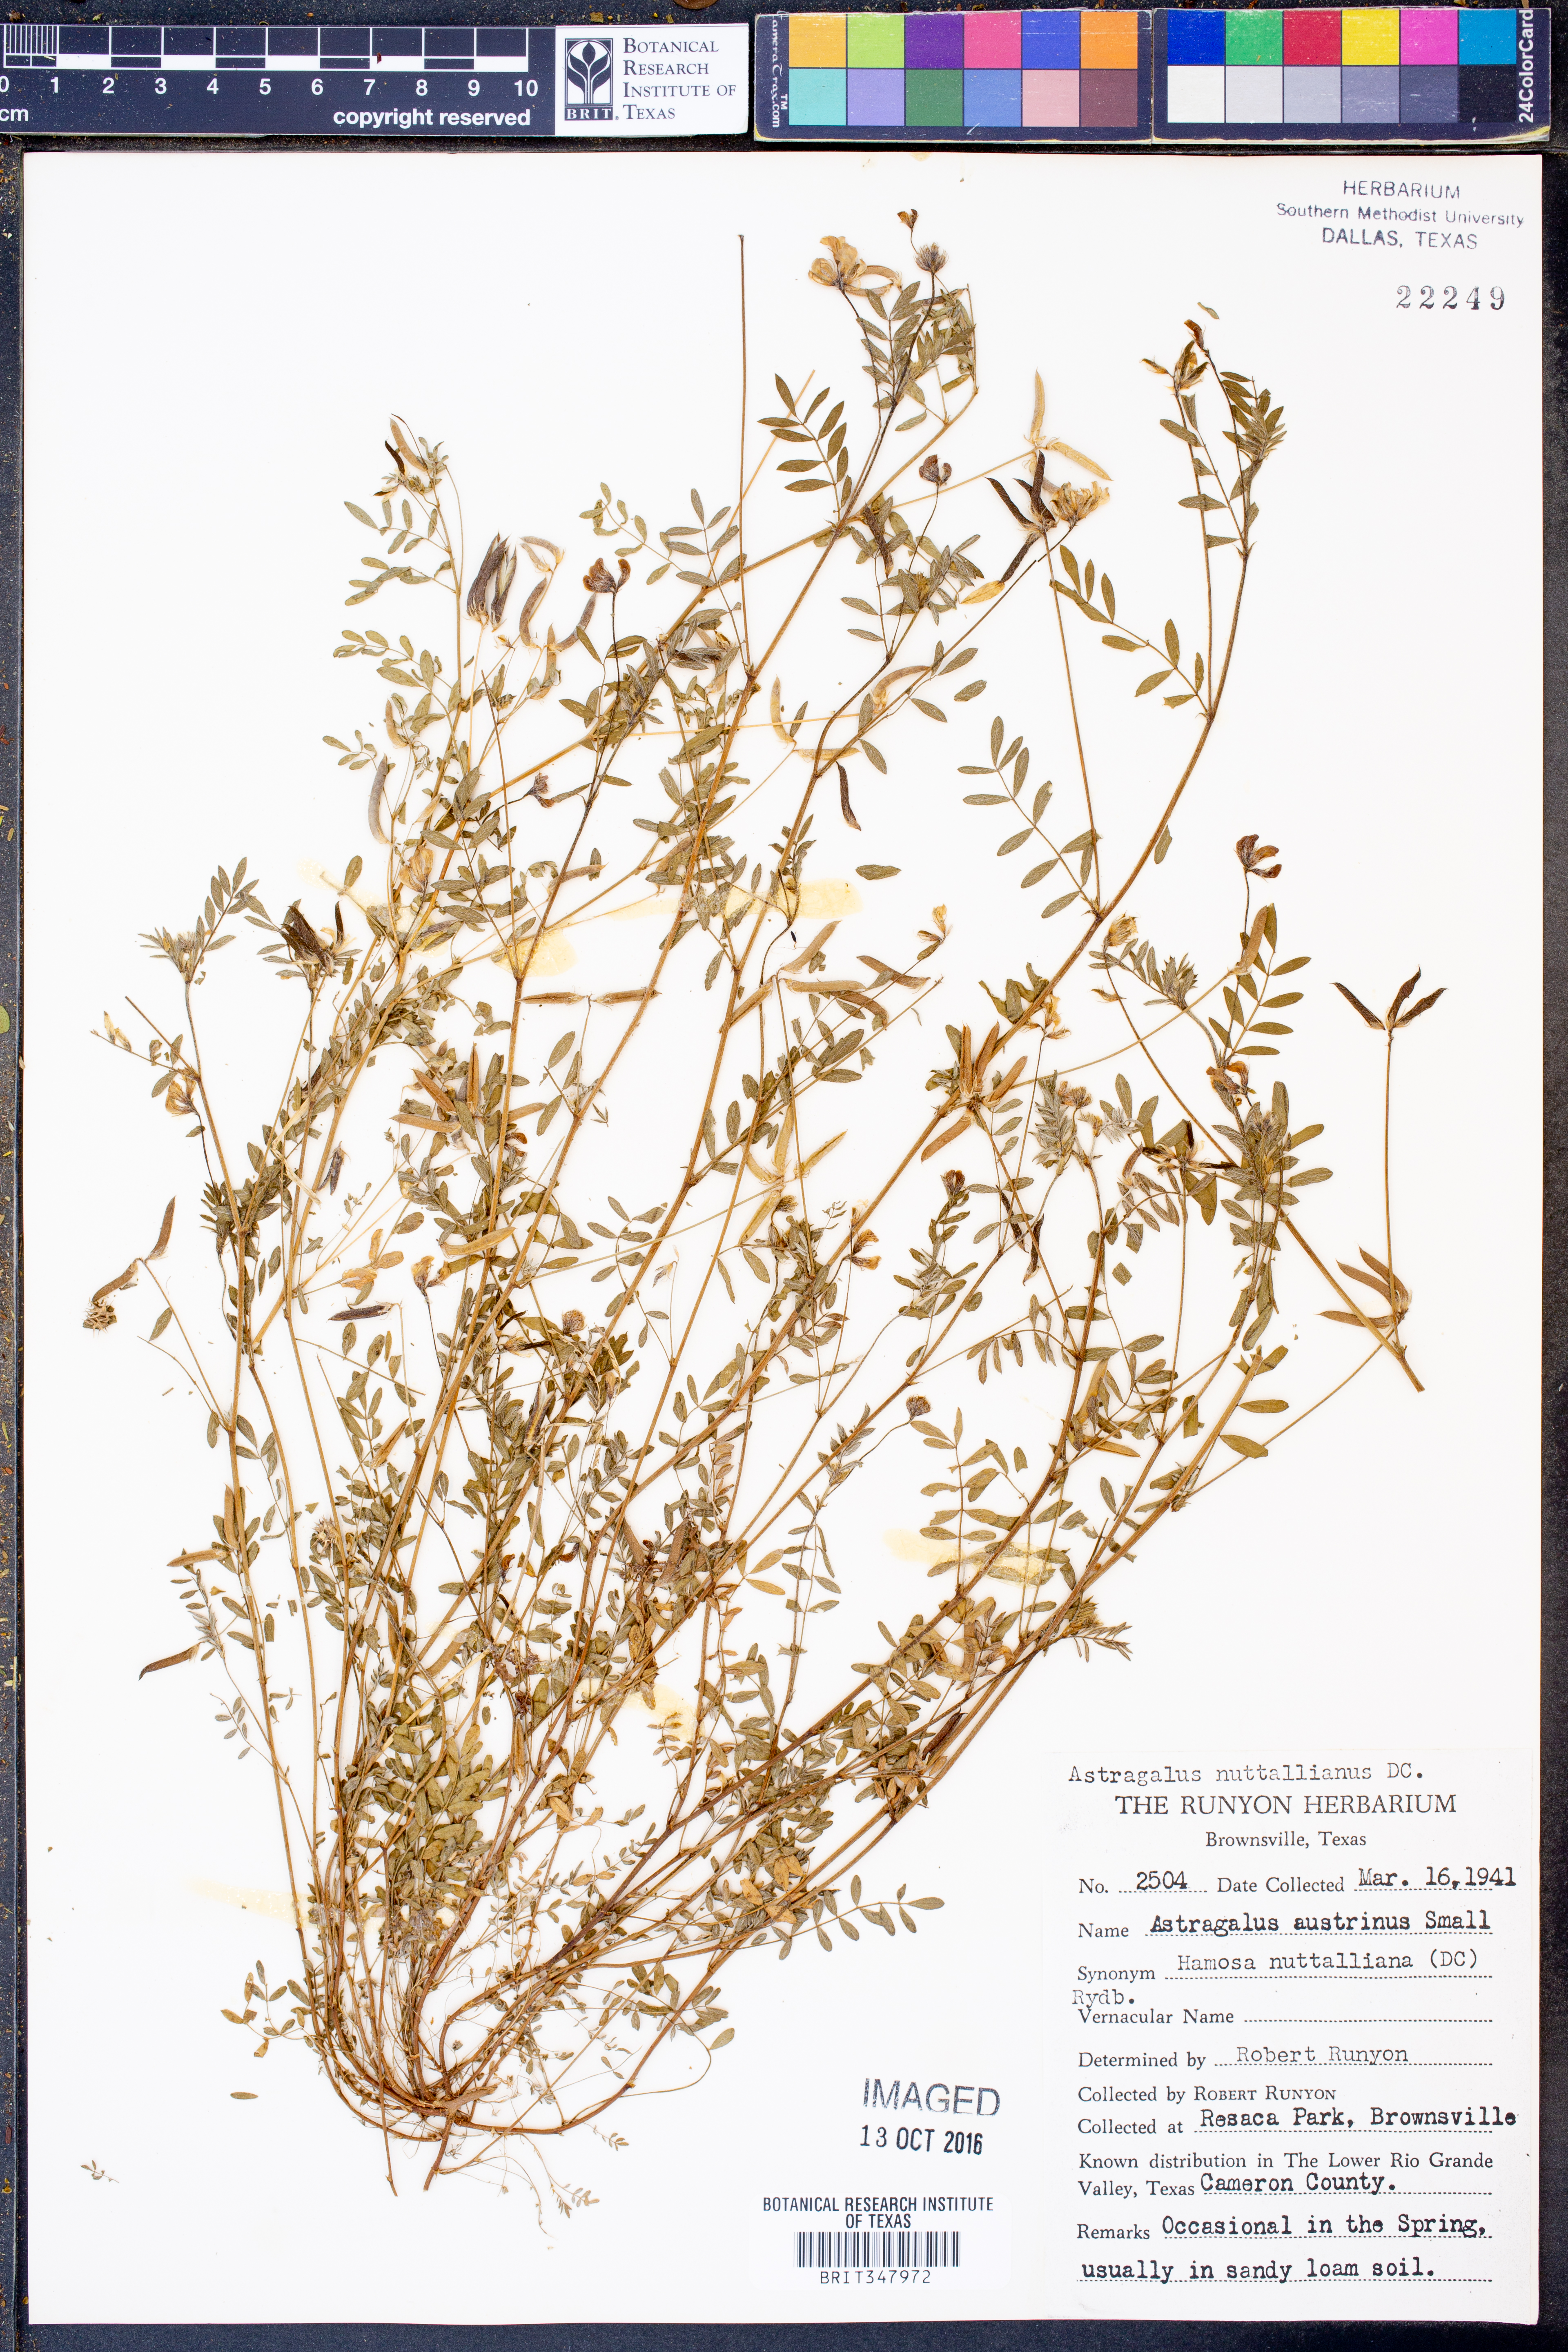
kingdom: Plantae
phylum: Tracheophyta
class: Magnoliopsida
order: Fabales
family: Fabaceae
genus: Astragalus
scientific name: Astragalus nuttallianus
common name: Smallflowered milkvetch
